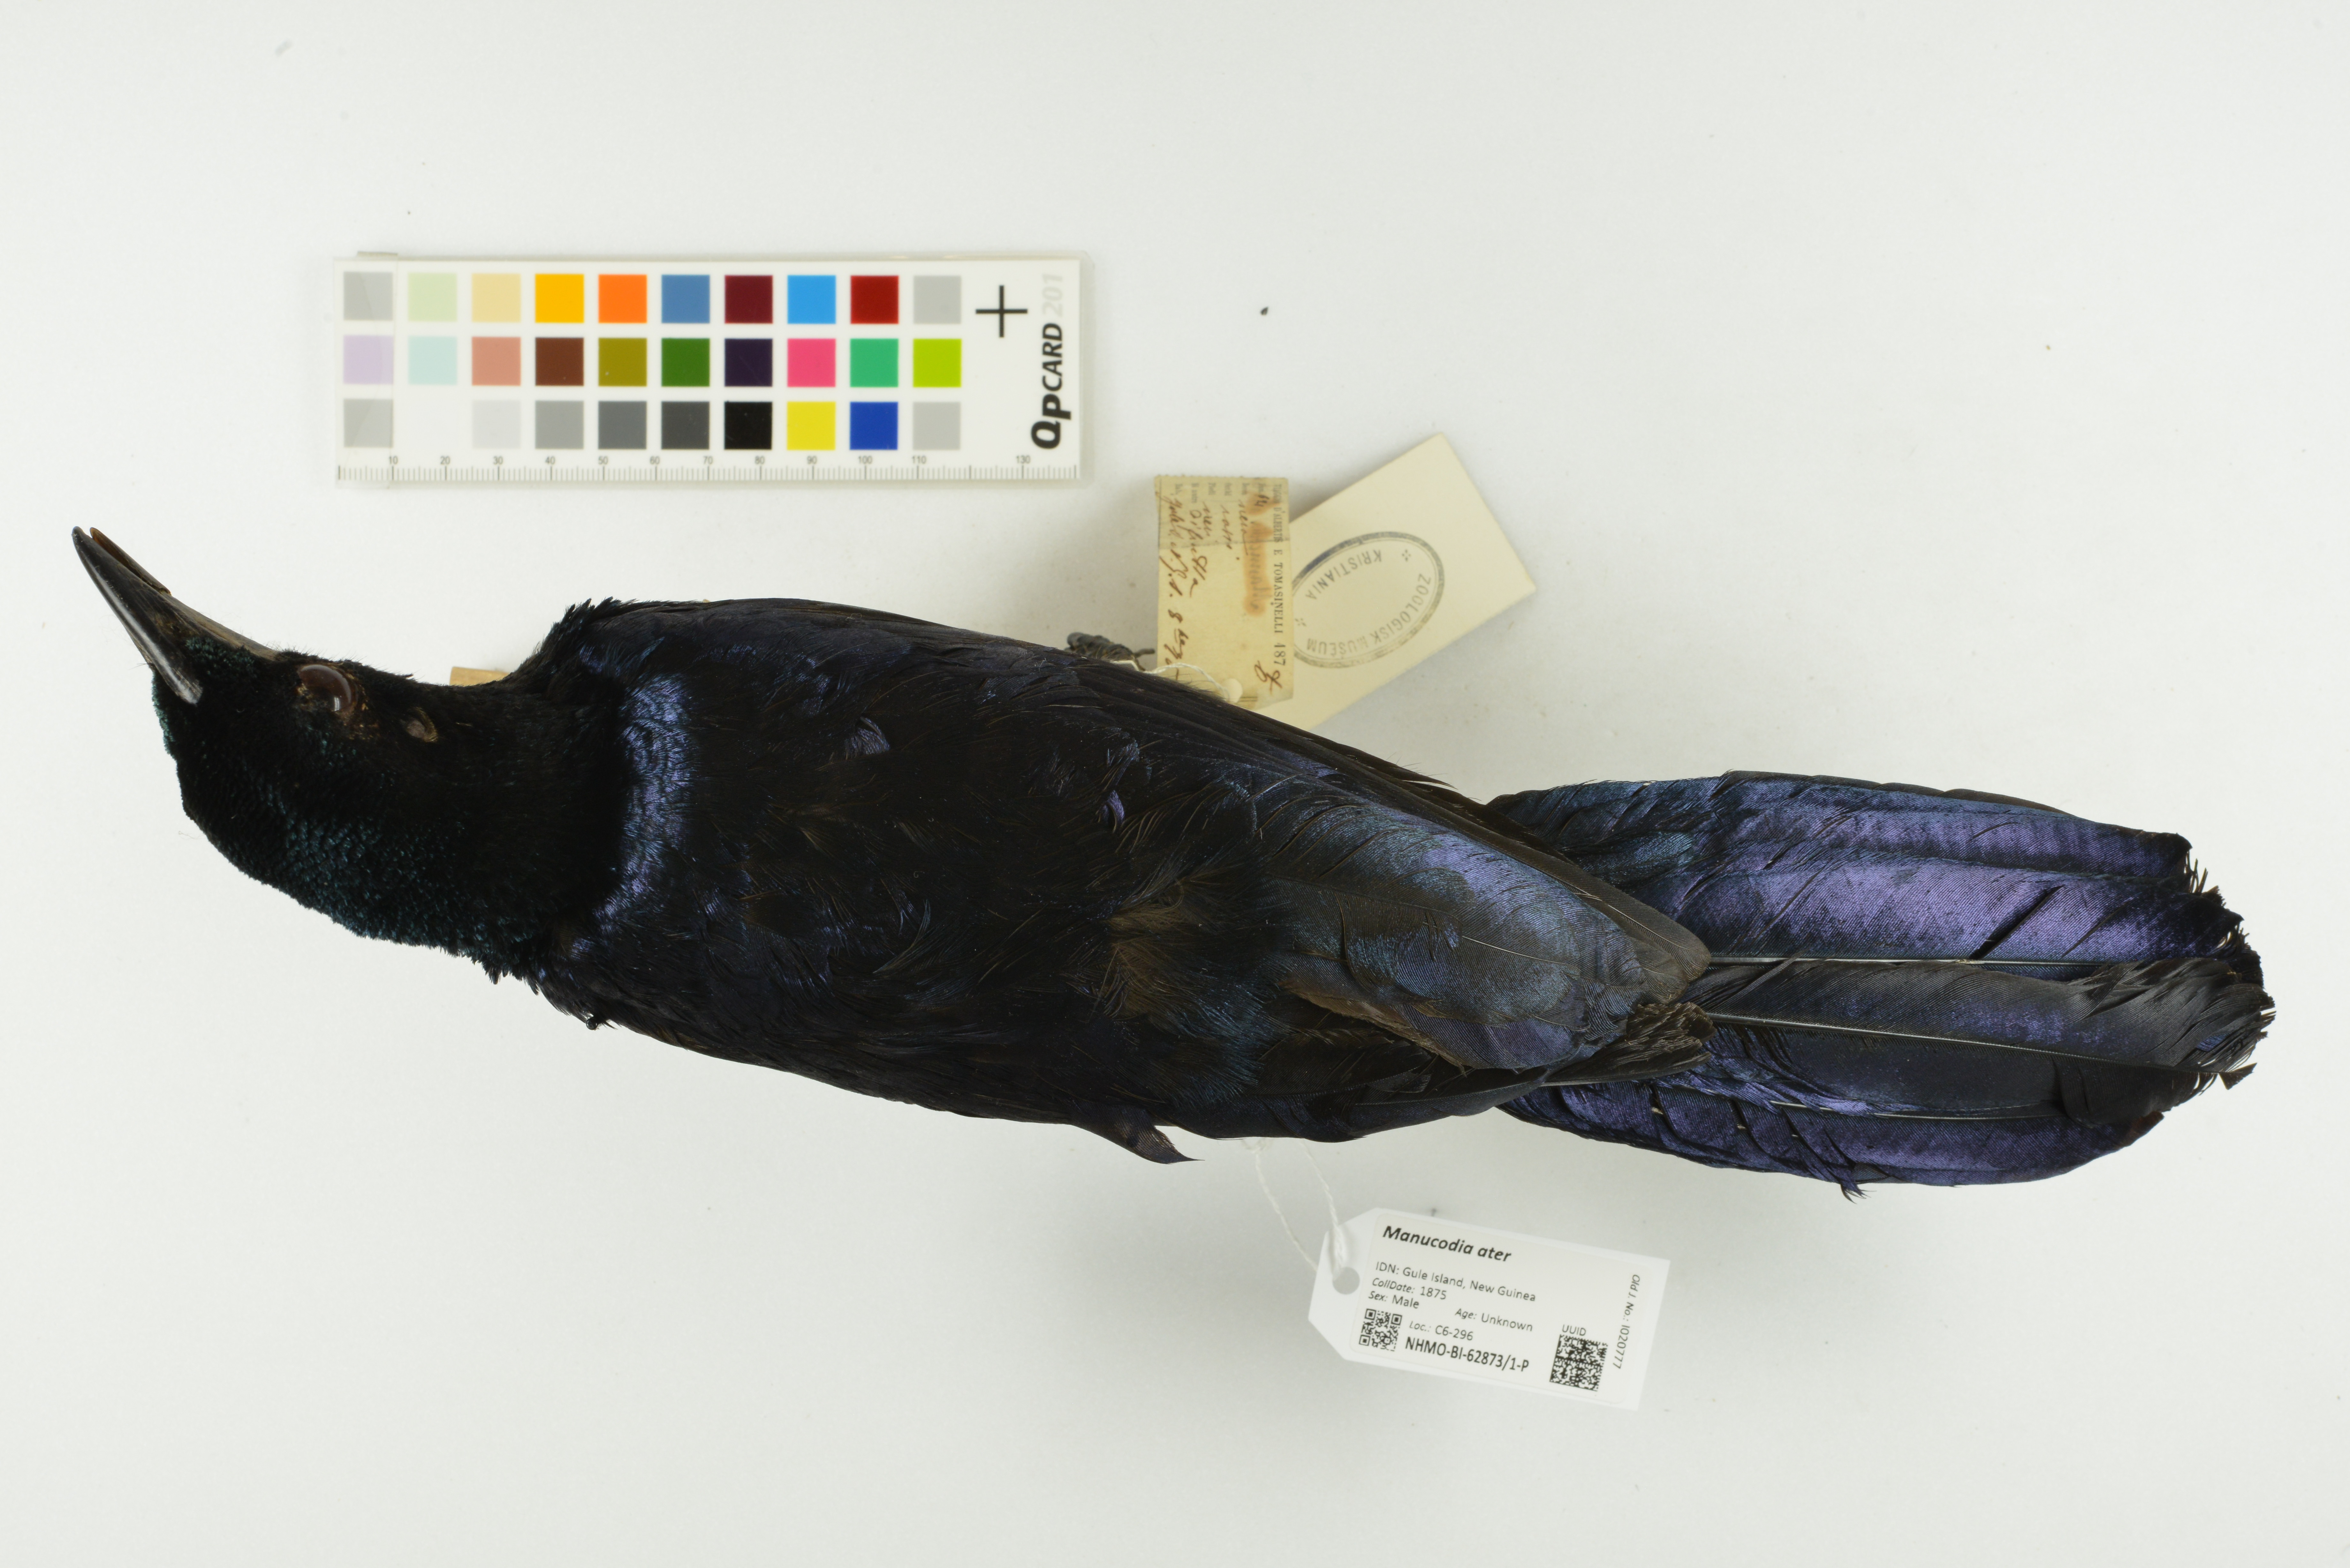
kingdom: Animalia
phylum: Chordata
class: Aves
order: Passeriformes
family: Paradisaeidae
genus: Manucodia
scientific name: Manucodia ater
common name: Glossy-mantled manucode
